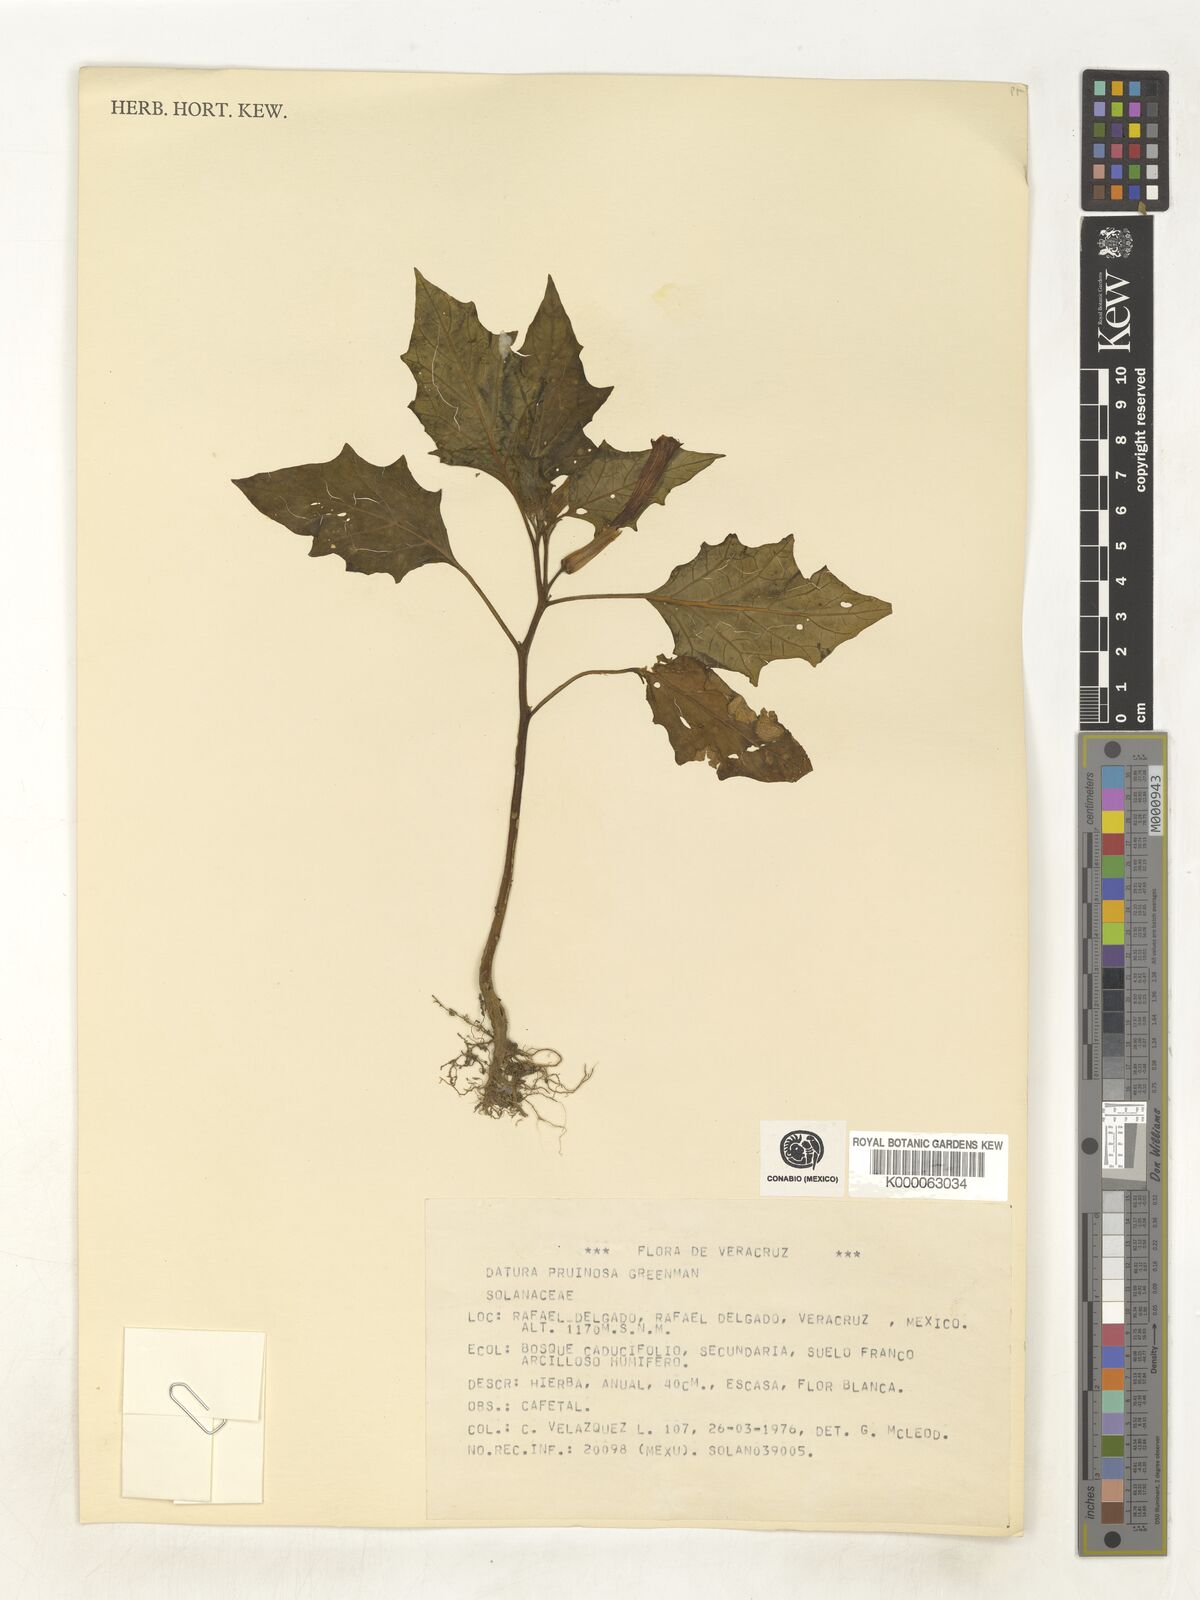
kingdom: Plantae
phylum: Tracheophyta
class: Magnoliopsida
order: Solanales
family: Solanaceae
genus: Datura
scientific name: Datura pruinosa
